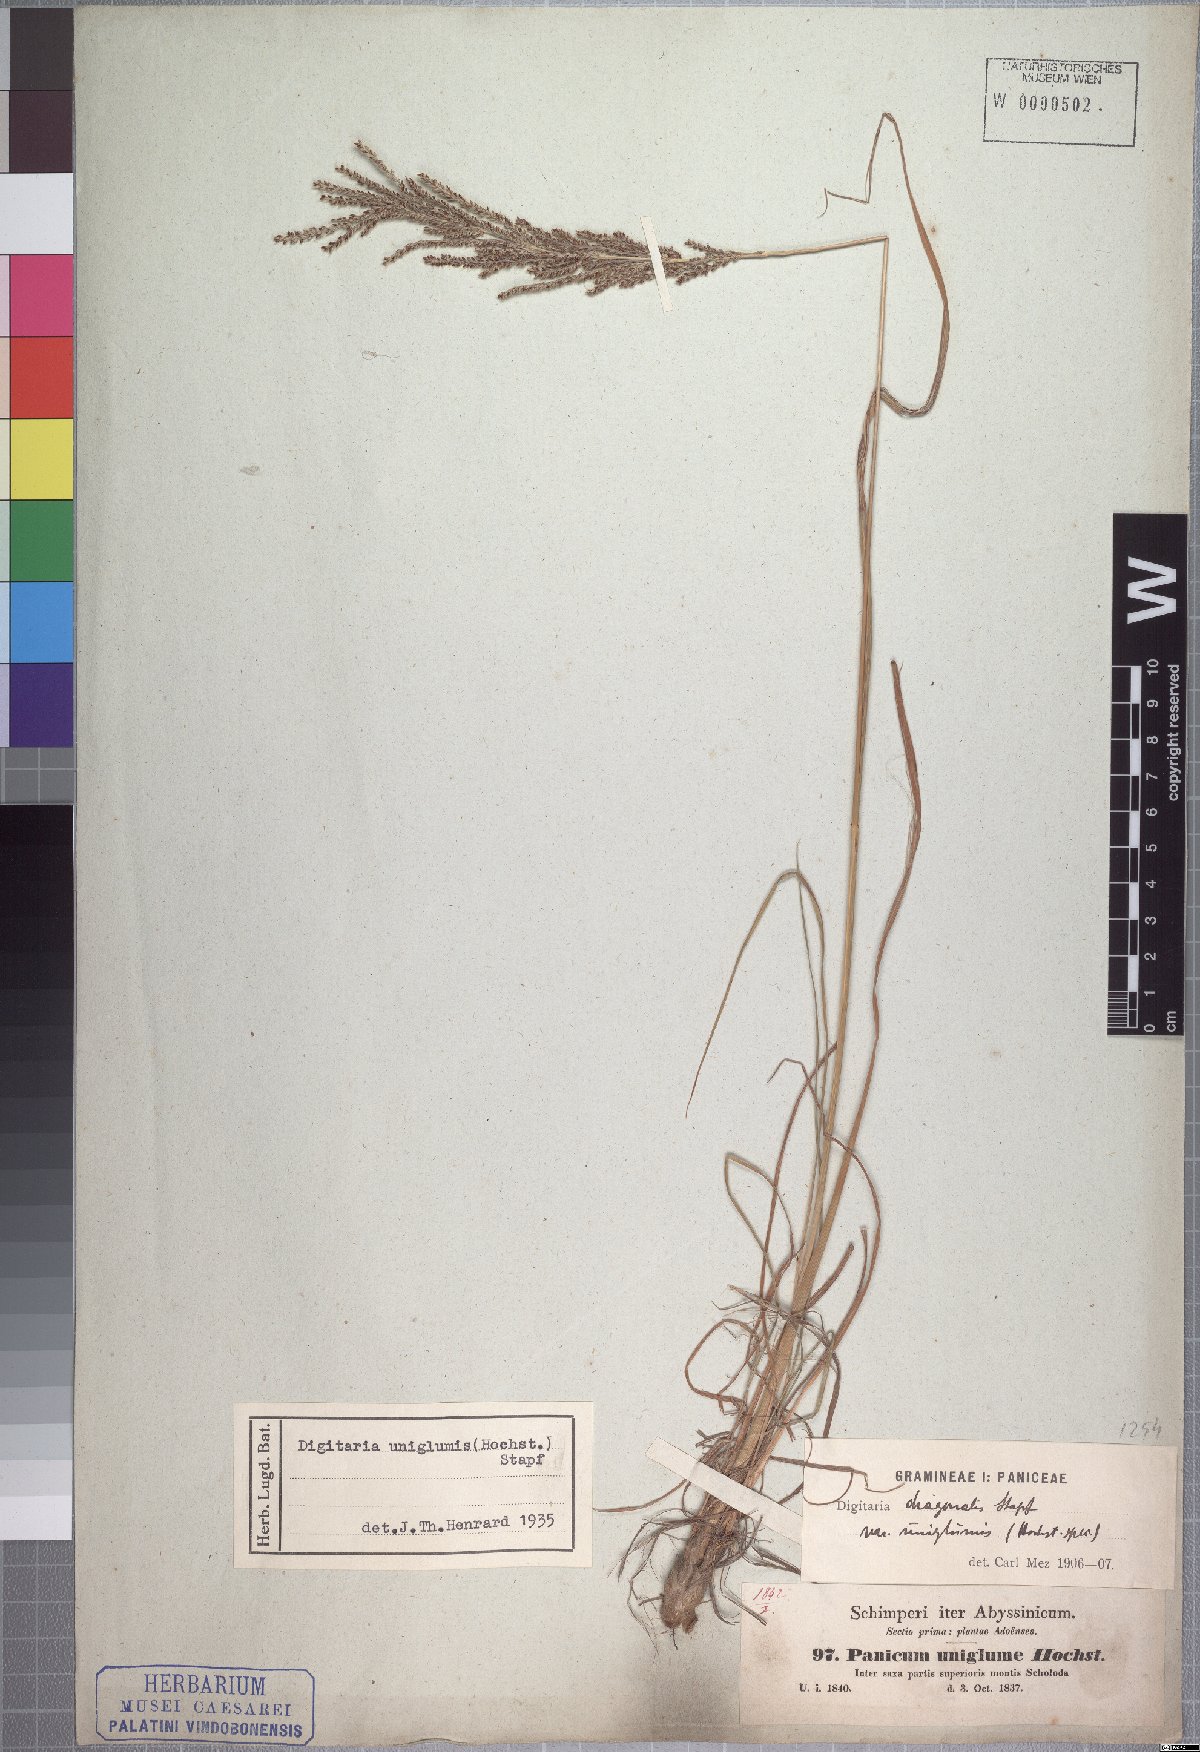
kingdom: Plantae
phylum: Tracheophyta
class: Liliopsida
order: Poales
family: Poaceae
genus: Digitaria
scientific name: Digitaria diagonalis
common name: Brown-seed finger grass
